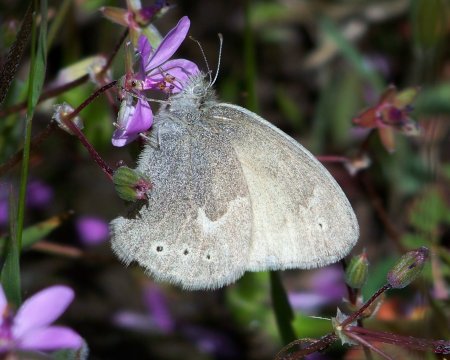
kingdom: Animalia
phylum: Arthropoda
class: Insecta
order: Lepidoptera
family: Nymphalidae
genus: Coenonympha
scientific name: Coenonympha tullia
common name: Large Heath
